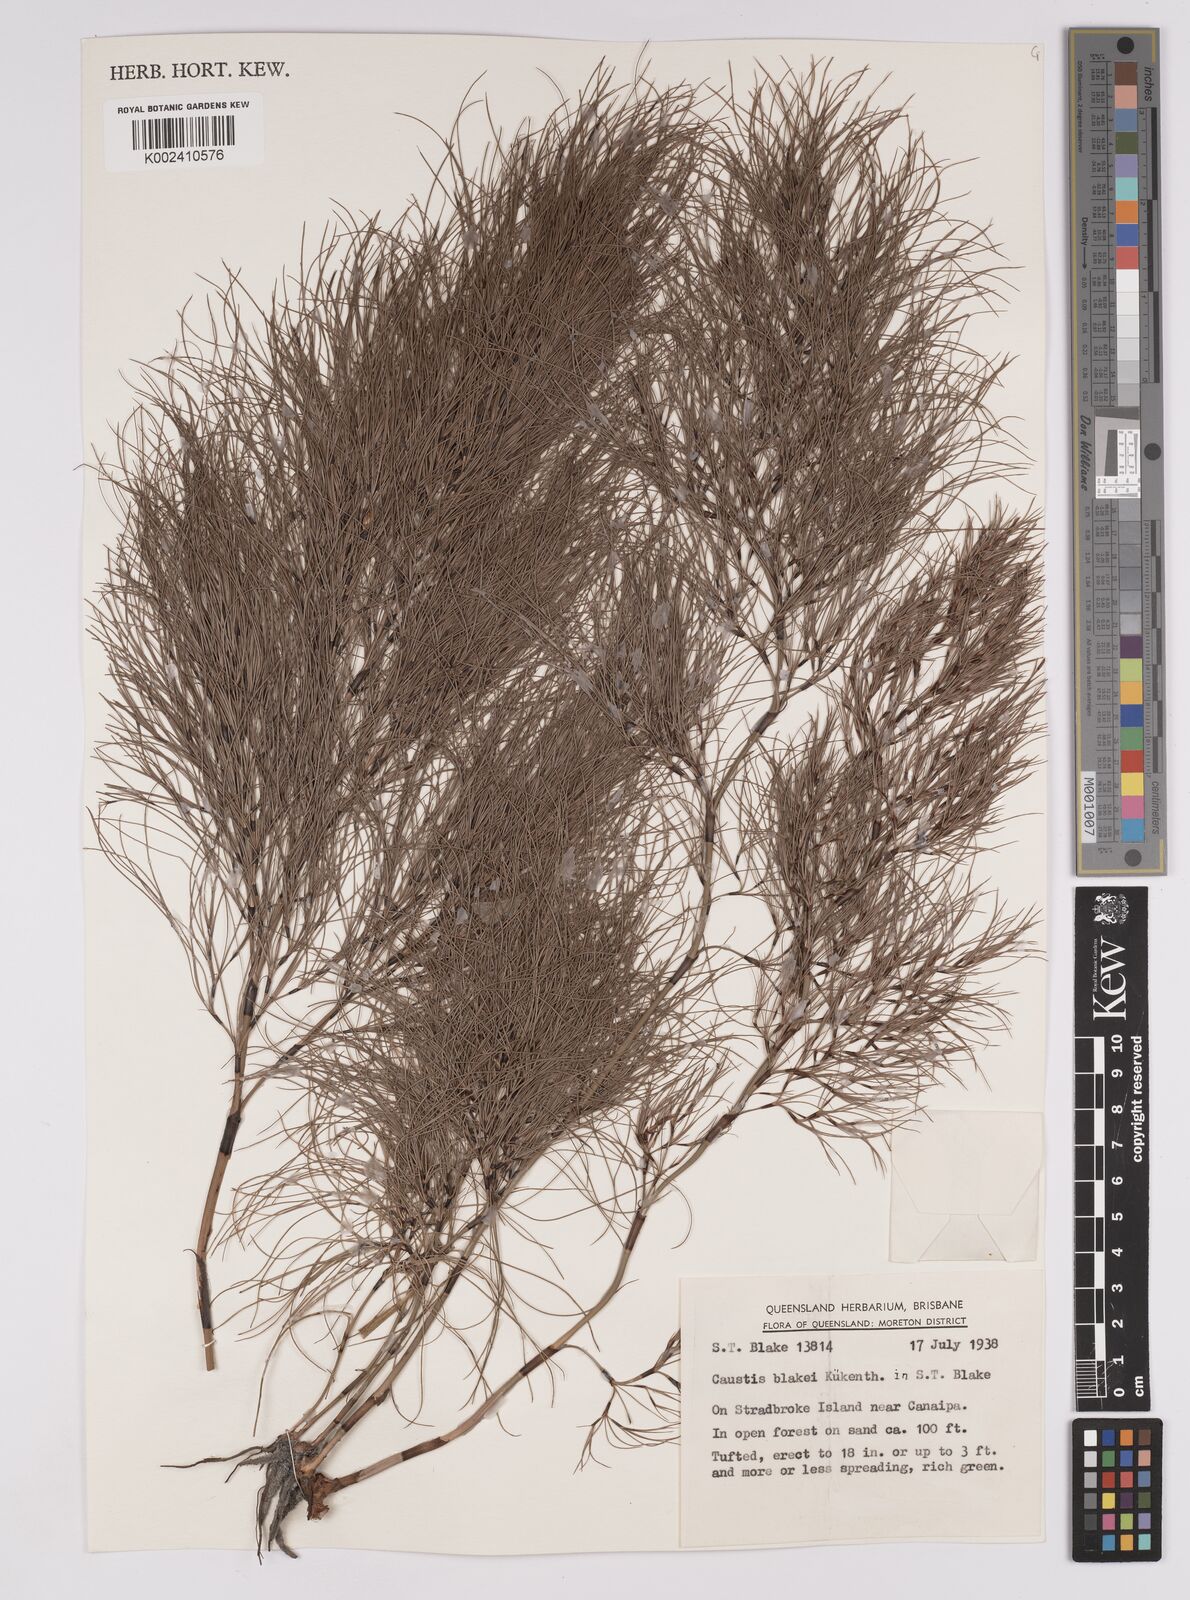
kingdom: Plantae
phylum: Tracheophyta
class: Liliopsida
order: Poales
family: Cyperaceae
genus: Caustis
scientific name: Caustis blakei
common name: Foxtail-fern
